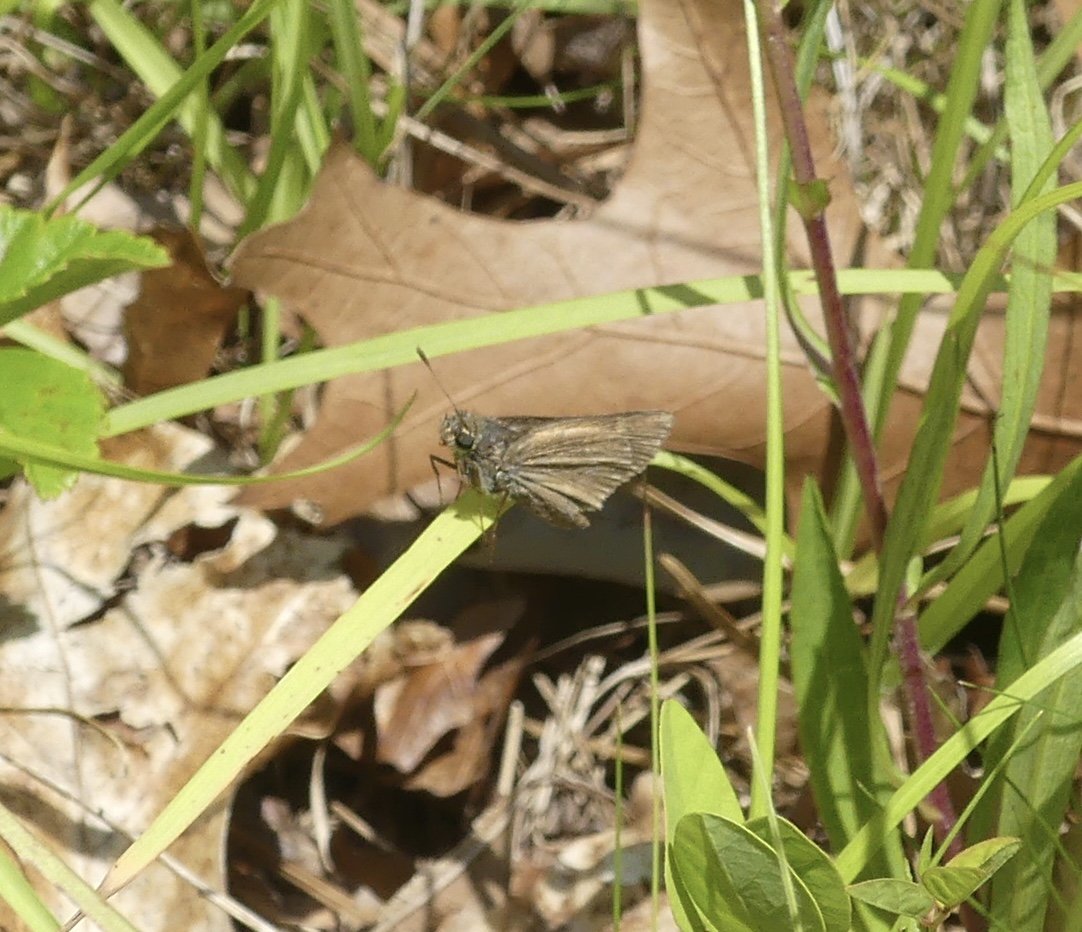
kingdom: Animalia
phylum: Arthropoda
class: Insecta
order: Lepidoptera
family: Hesperiidae
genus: Polites
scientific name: Polites
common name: Crossline Skipper
